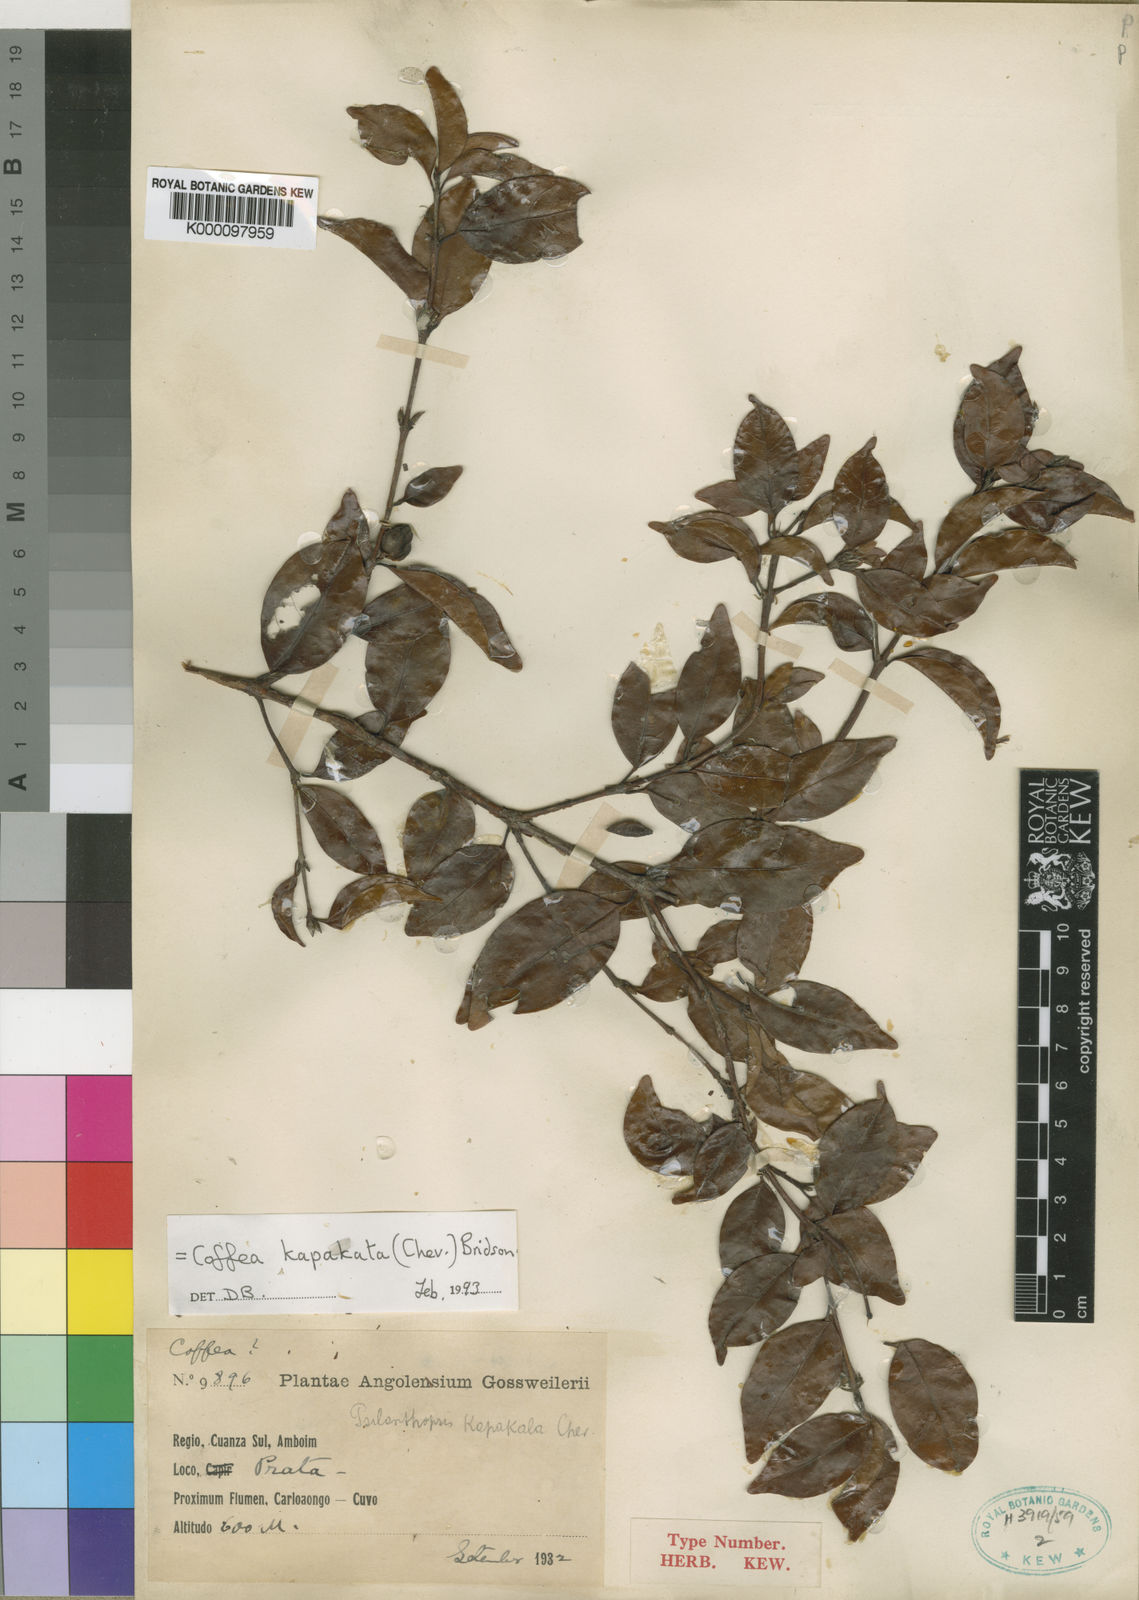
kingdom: Plantae
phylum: Tracheophyta
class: Magnoliopsida
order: Gentianales
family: Rubiaceae
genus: Coffea
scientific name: Coffea kapakata
